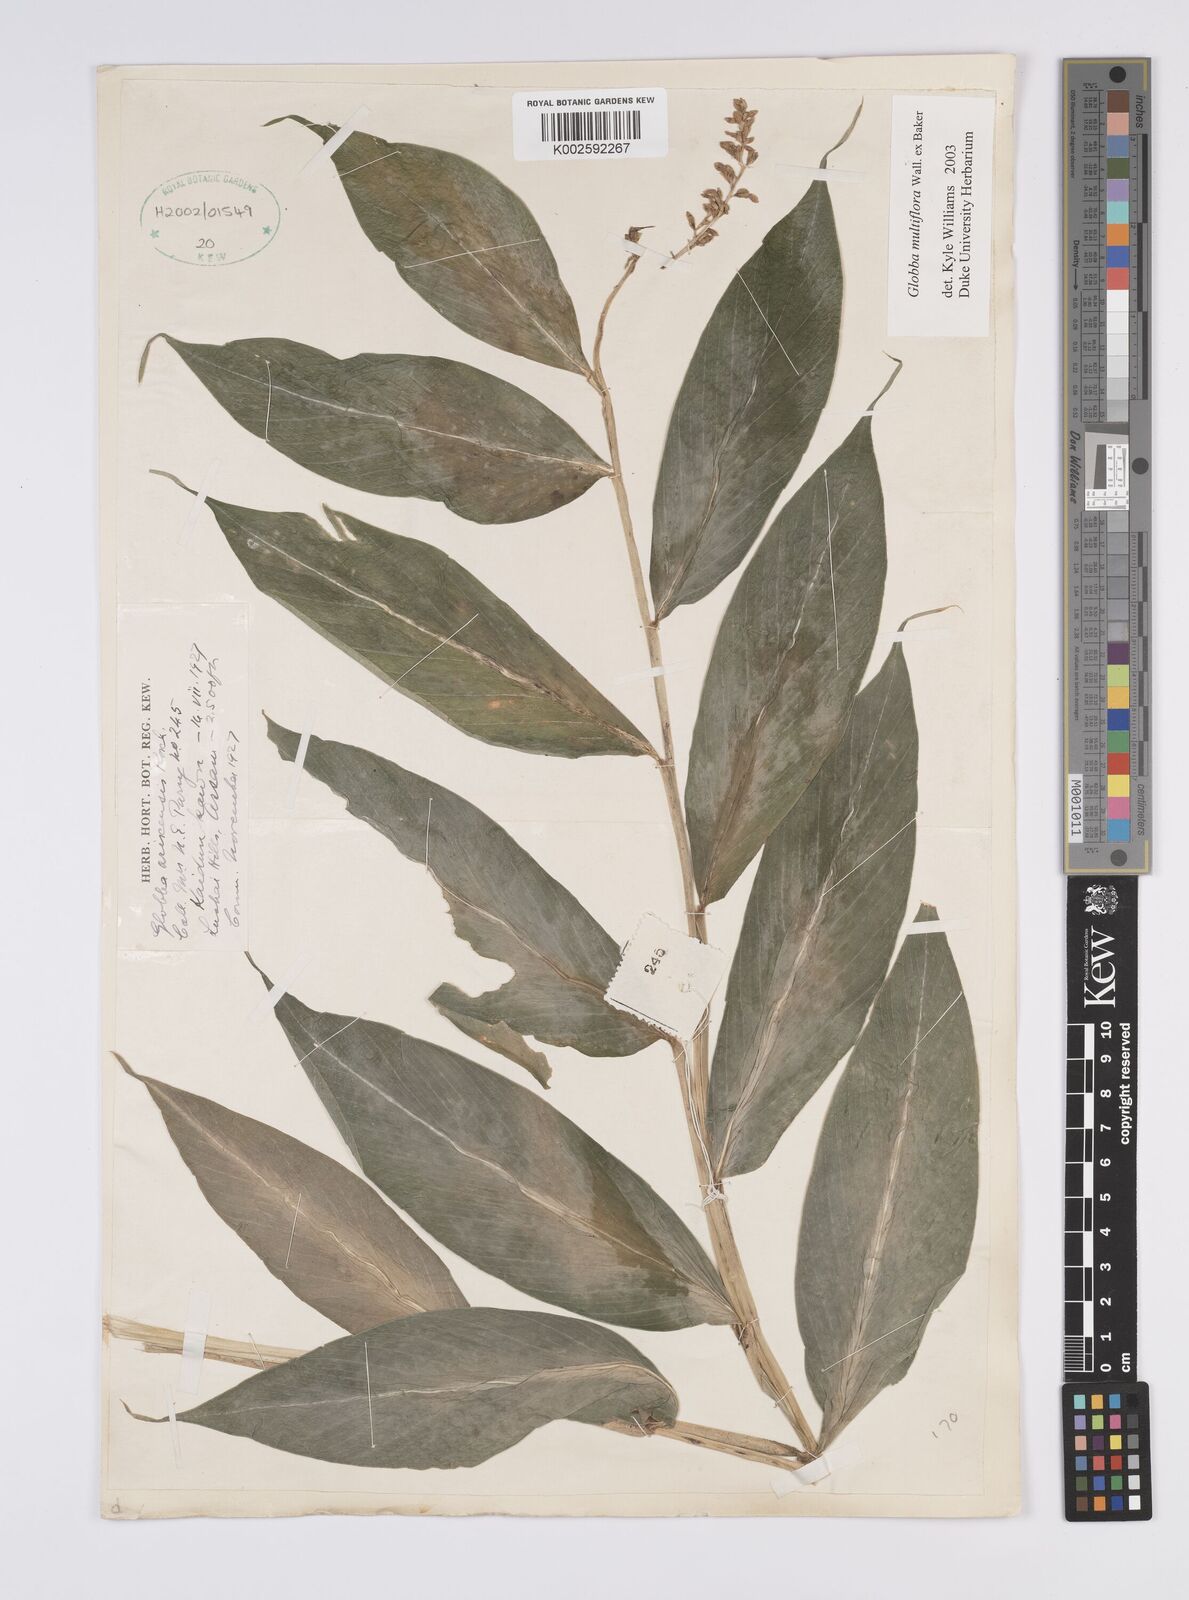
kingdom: Plantae
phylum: Tracheophyta
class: Liliopsida
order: Zingiberales
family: Zingiberaceae
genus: Globba
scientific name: Globba multiflora
